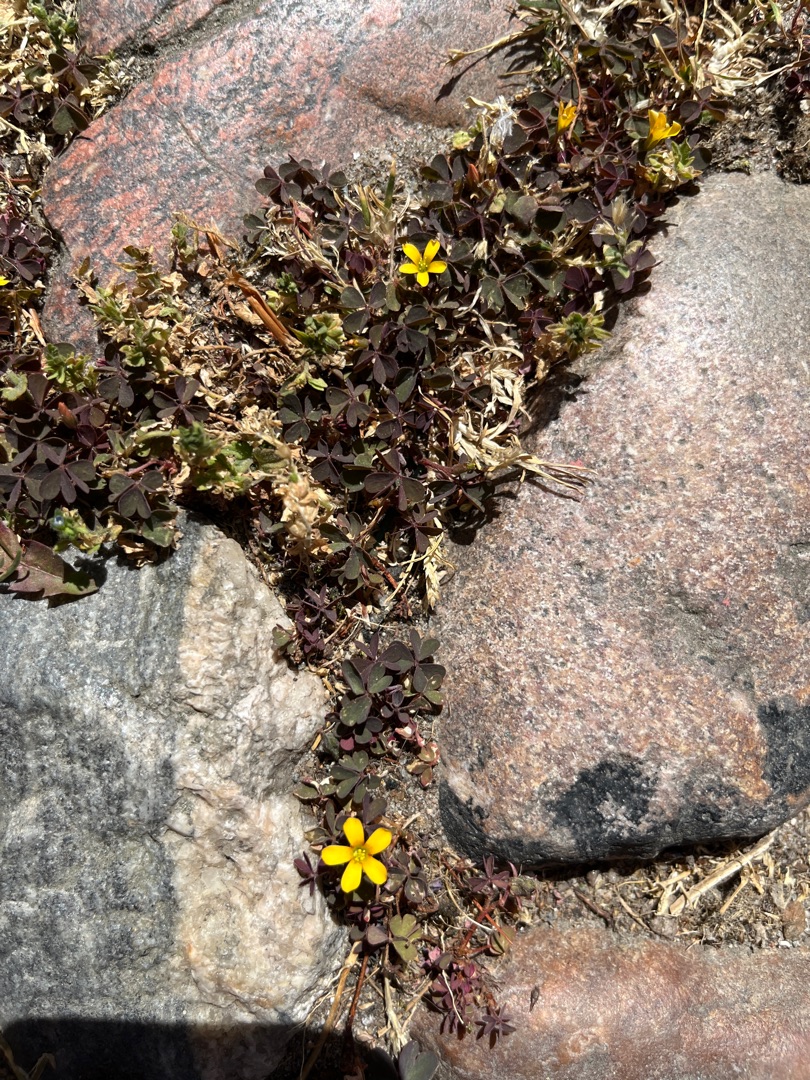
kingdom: Plantae
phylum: Tracheophyta
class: Magnoliopsida
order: Oxalidales
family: Oxalidaceae
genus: Oxalis
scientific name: Oxalis corniculata
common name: Nedliggende surkløver
